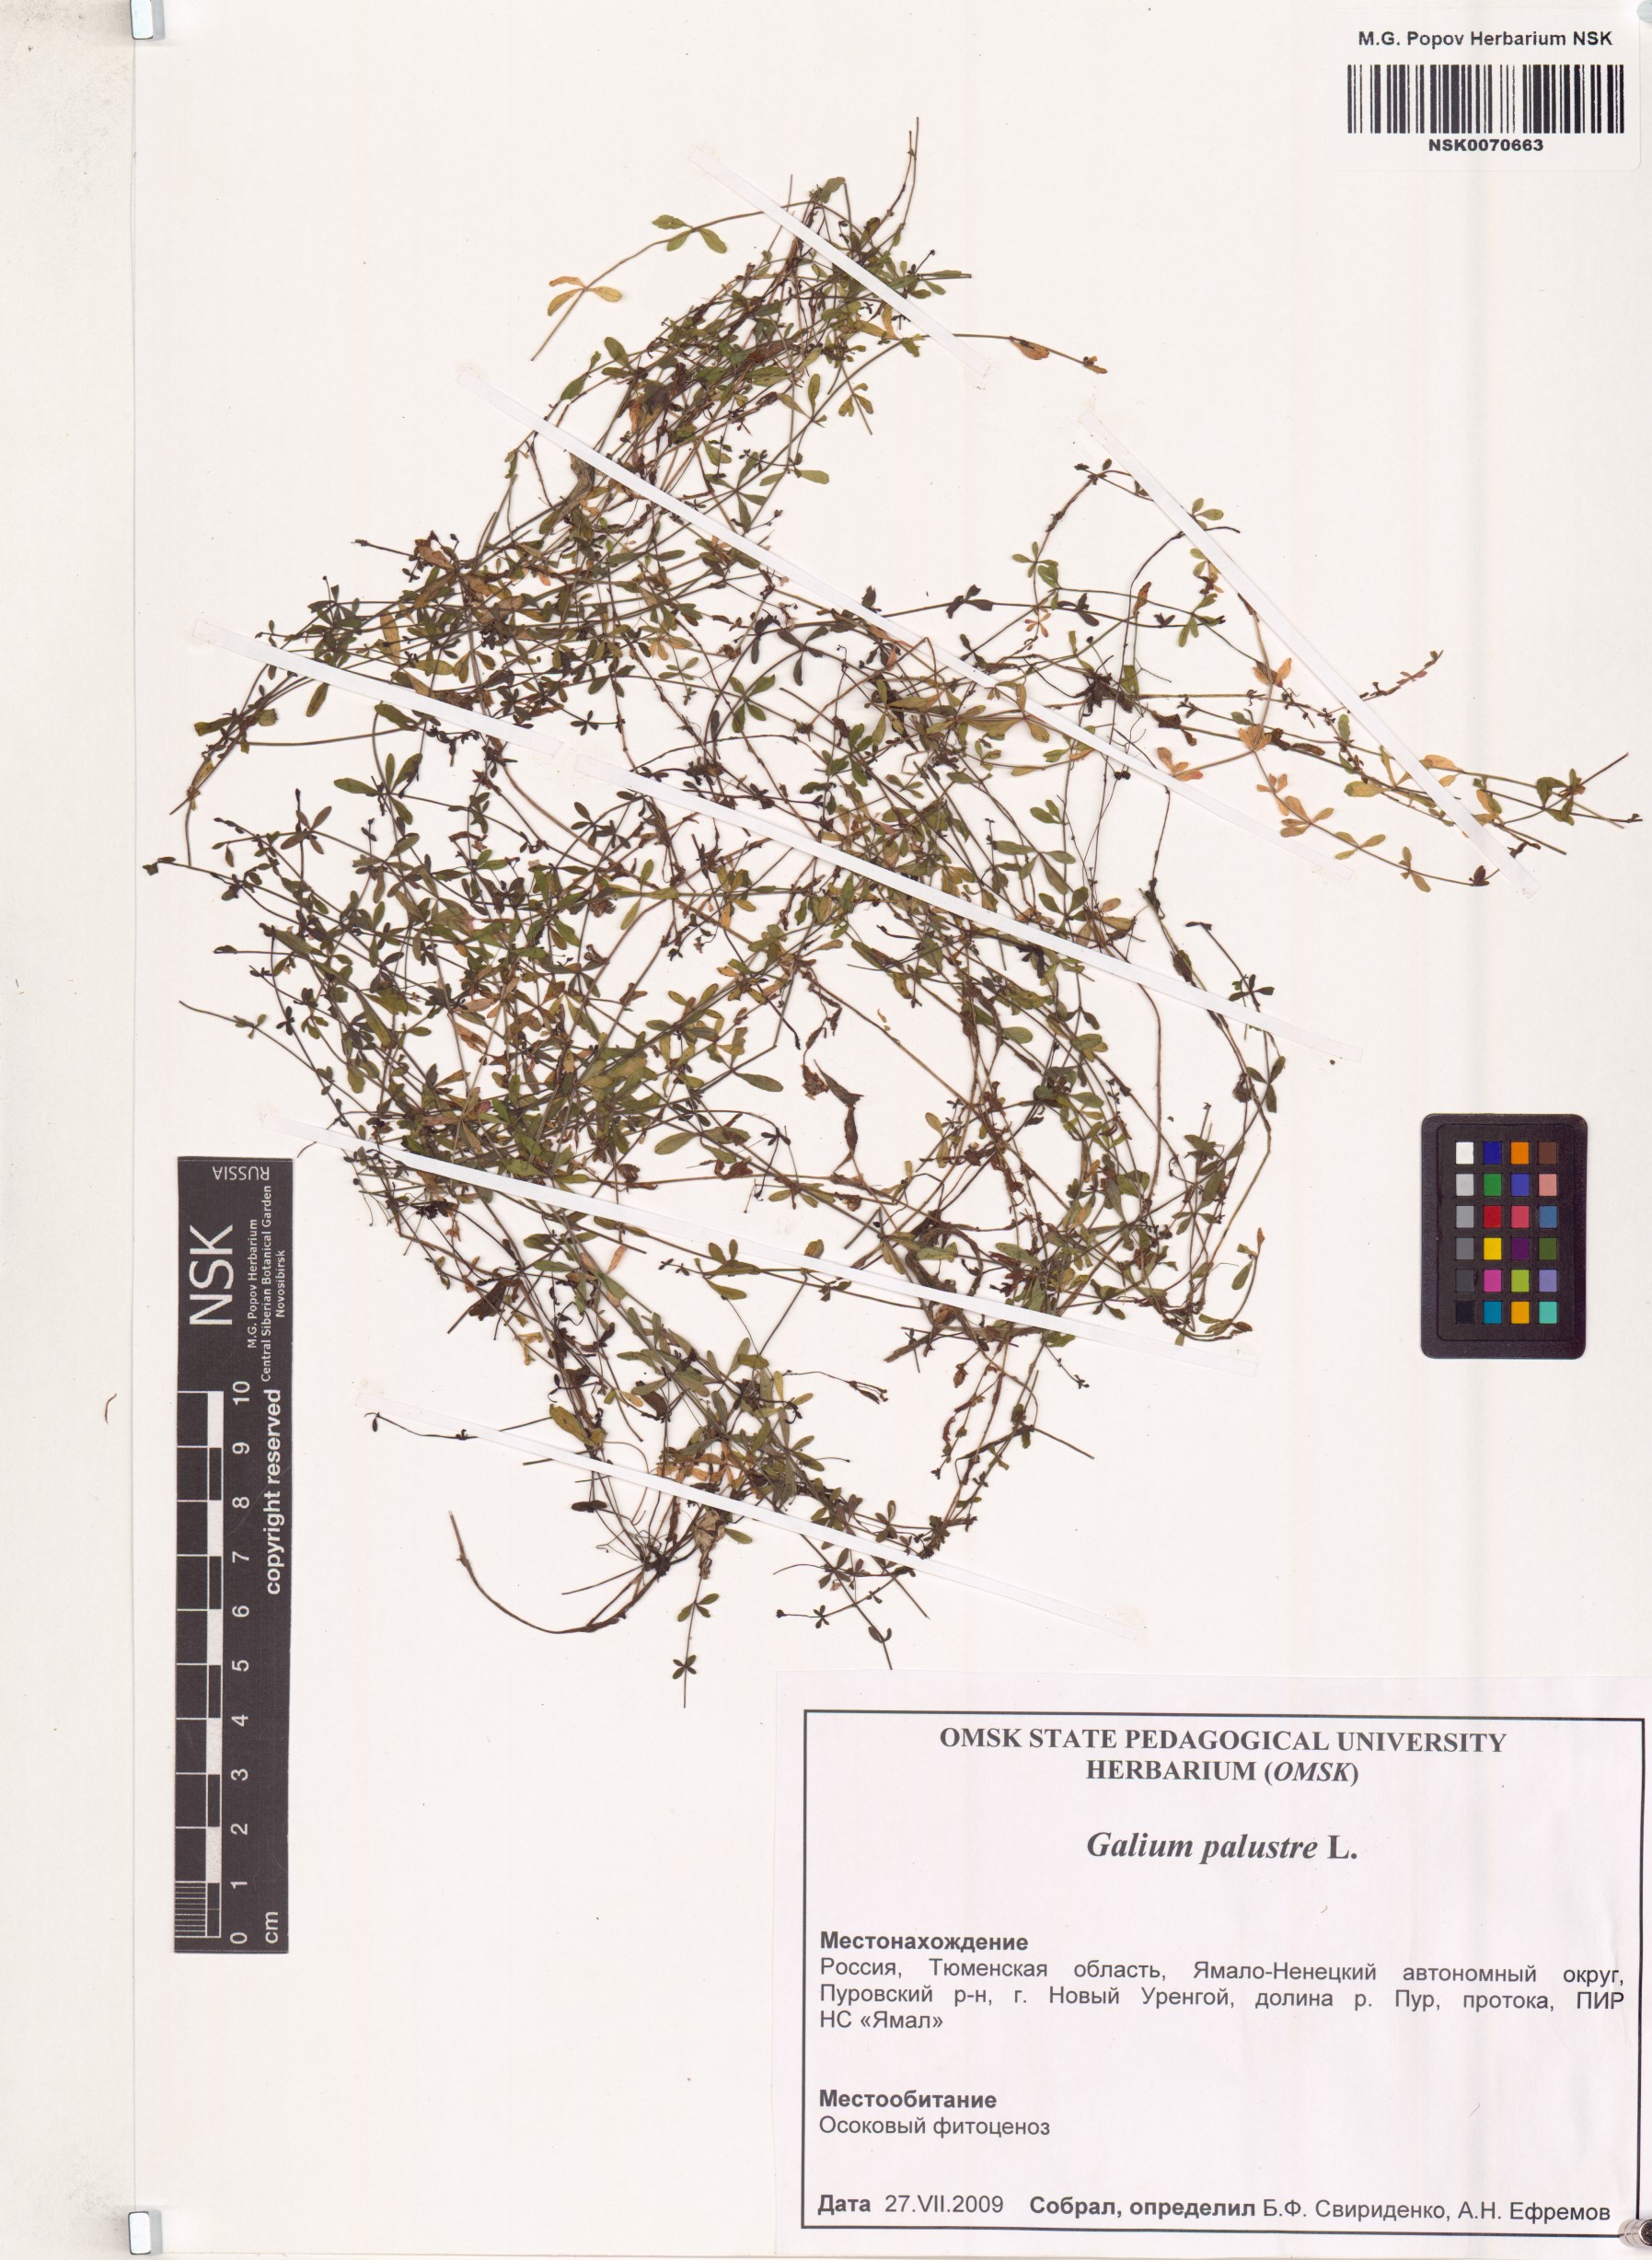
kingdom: Plantae
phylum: Tracheophyta
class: Magnoliopsida
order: Gentianales
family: Rubiaceae
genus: Galium
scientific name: Galium palustre
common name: Common marsh-bedstraw
